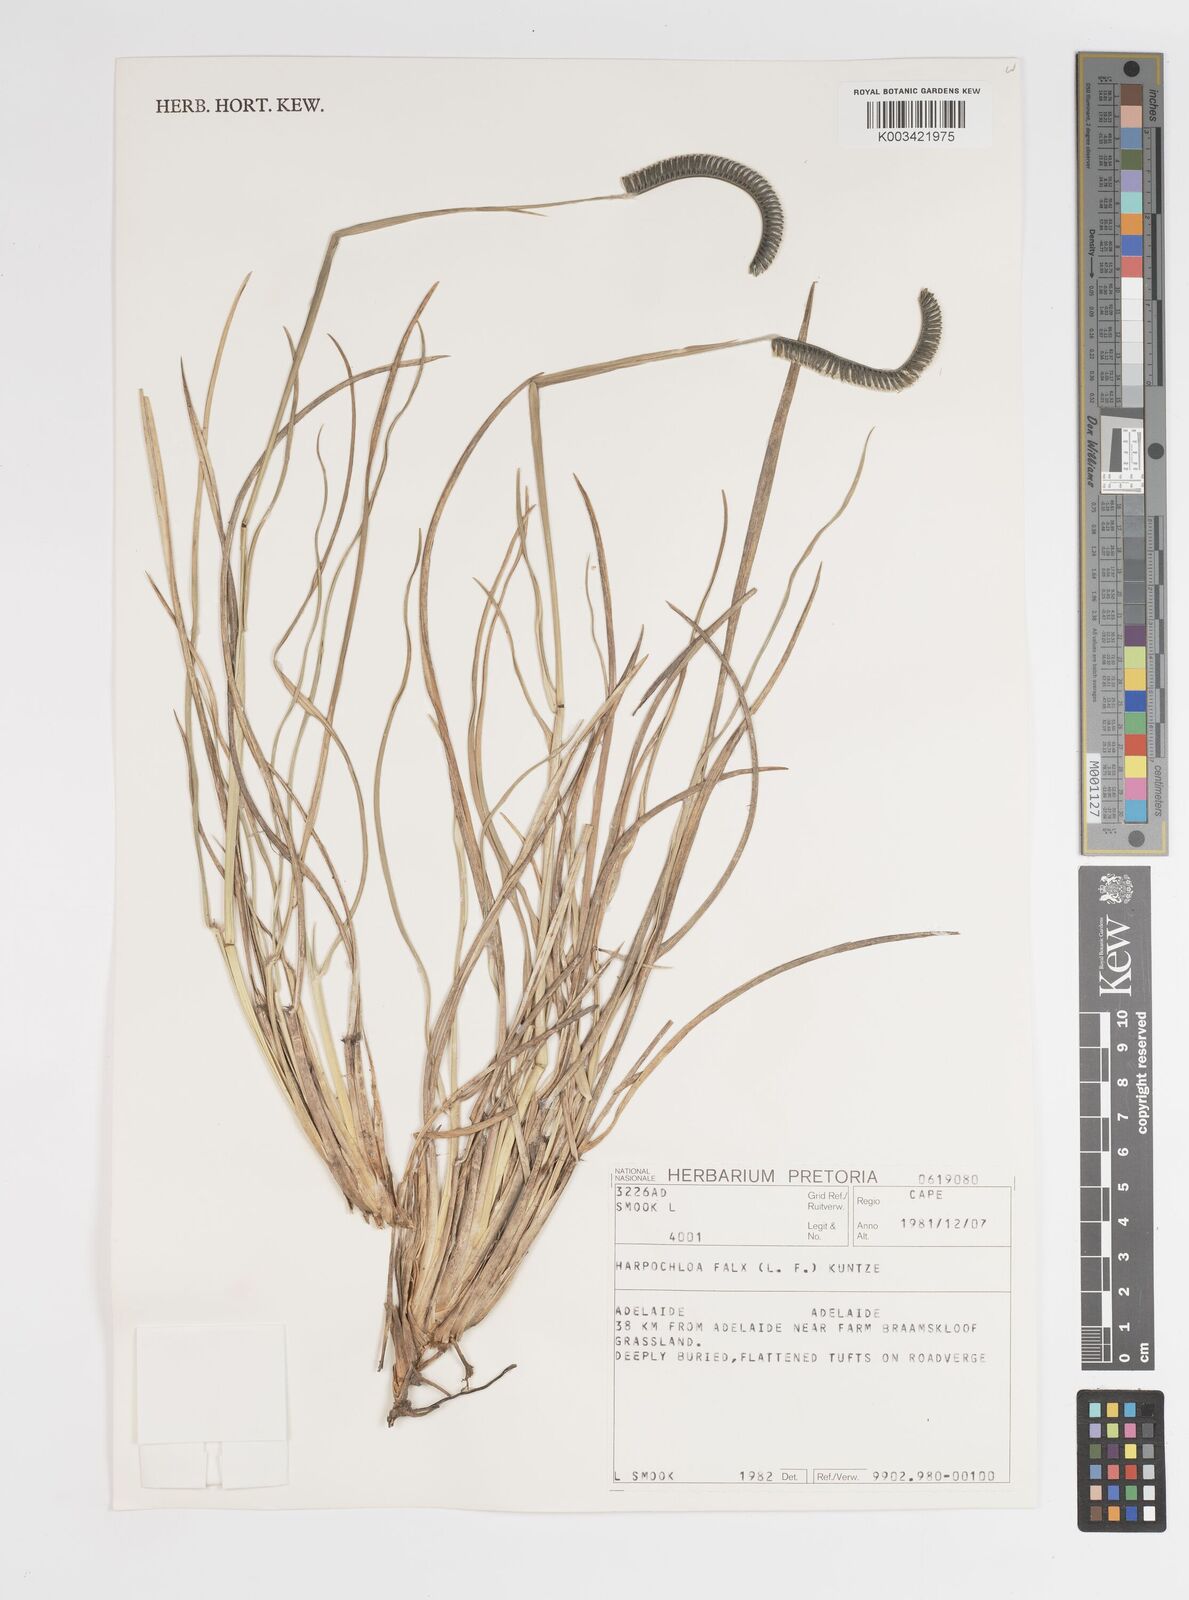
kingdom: Plantae
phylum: Tracheophyta
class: Liliopsida
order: Poales
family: Poaceae
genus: Harpochloa
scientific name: Harpochloa falx
